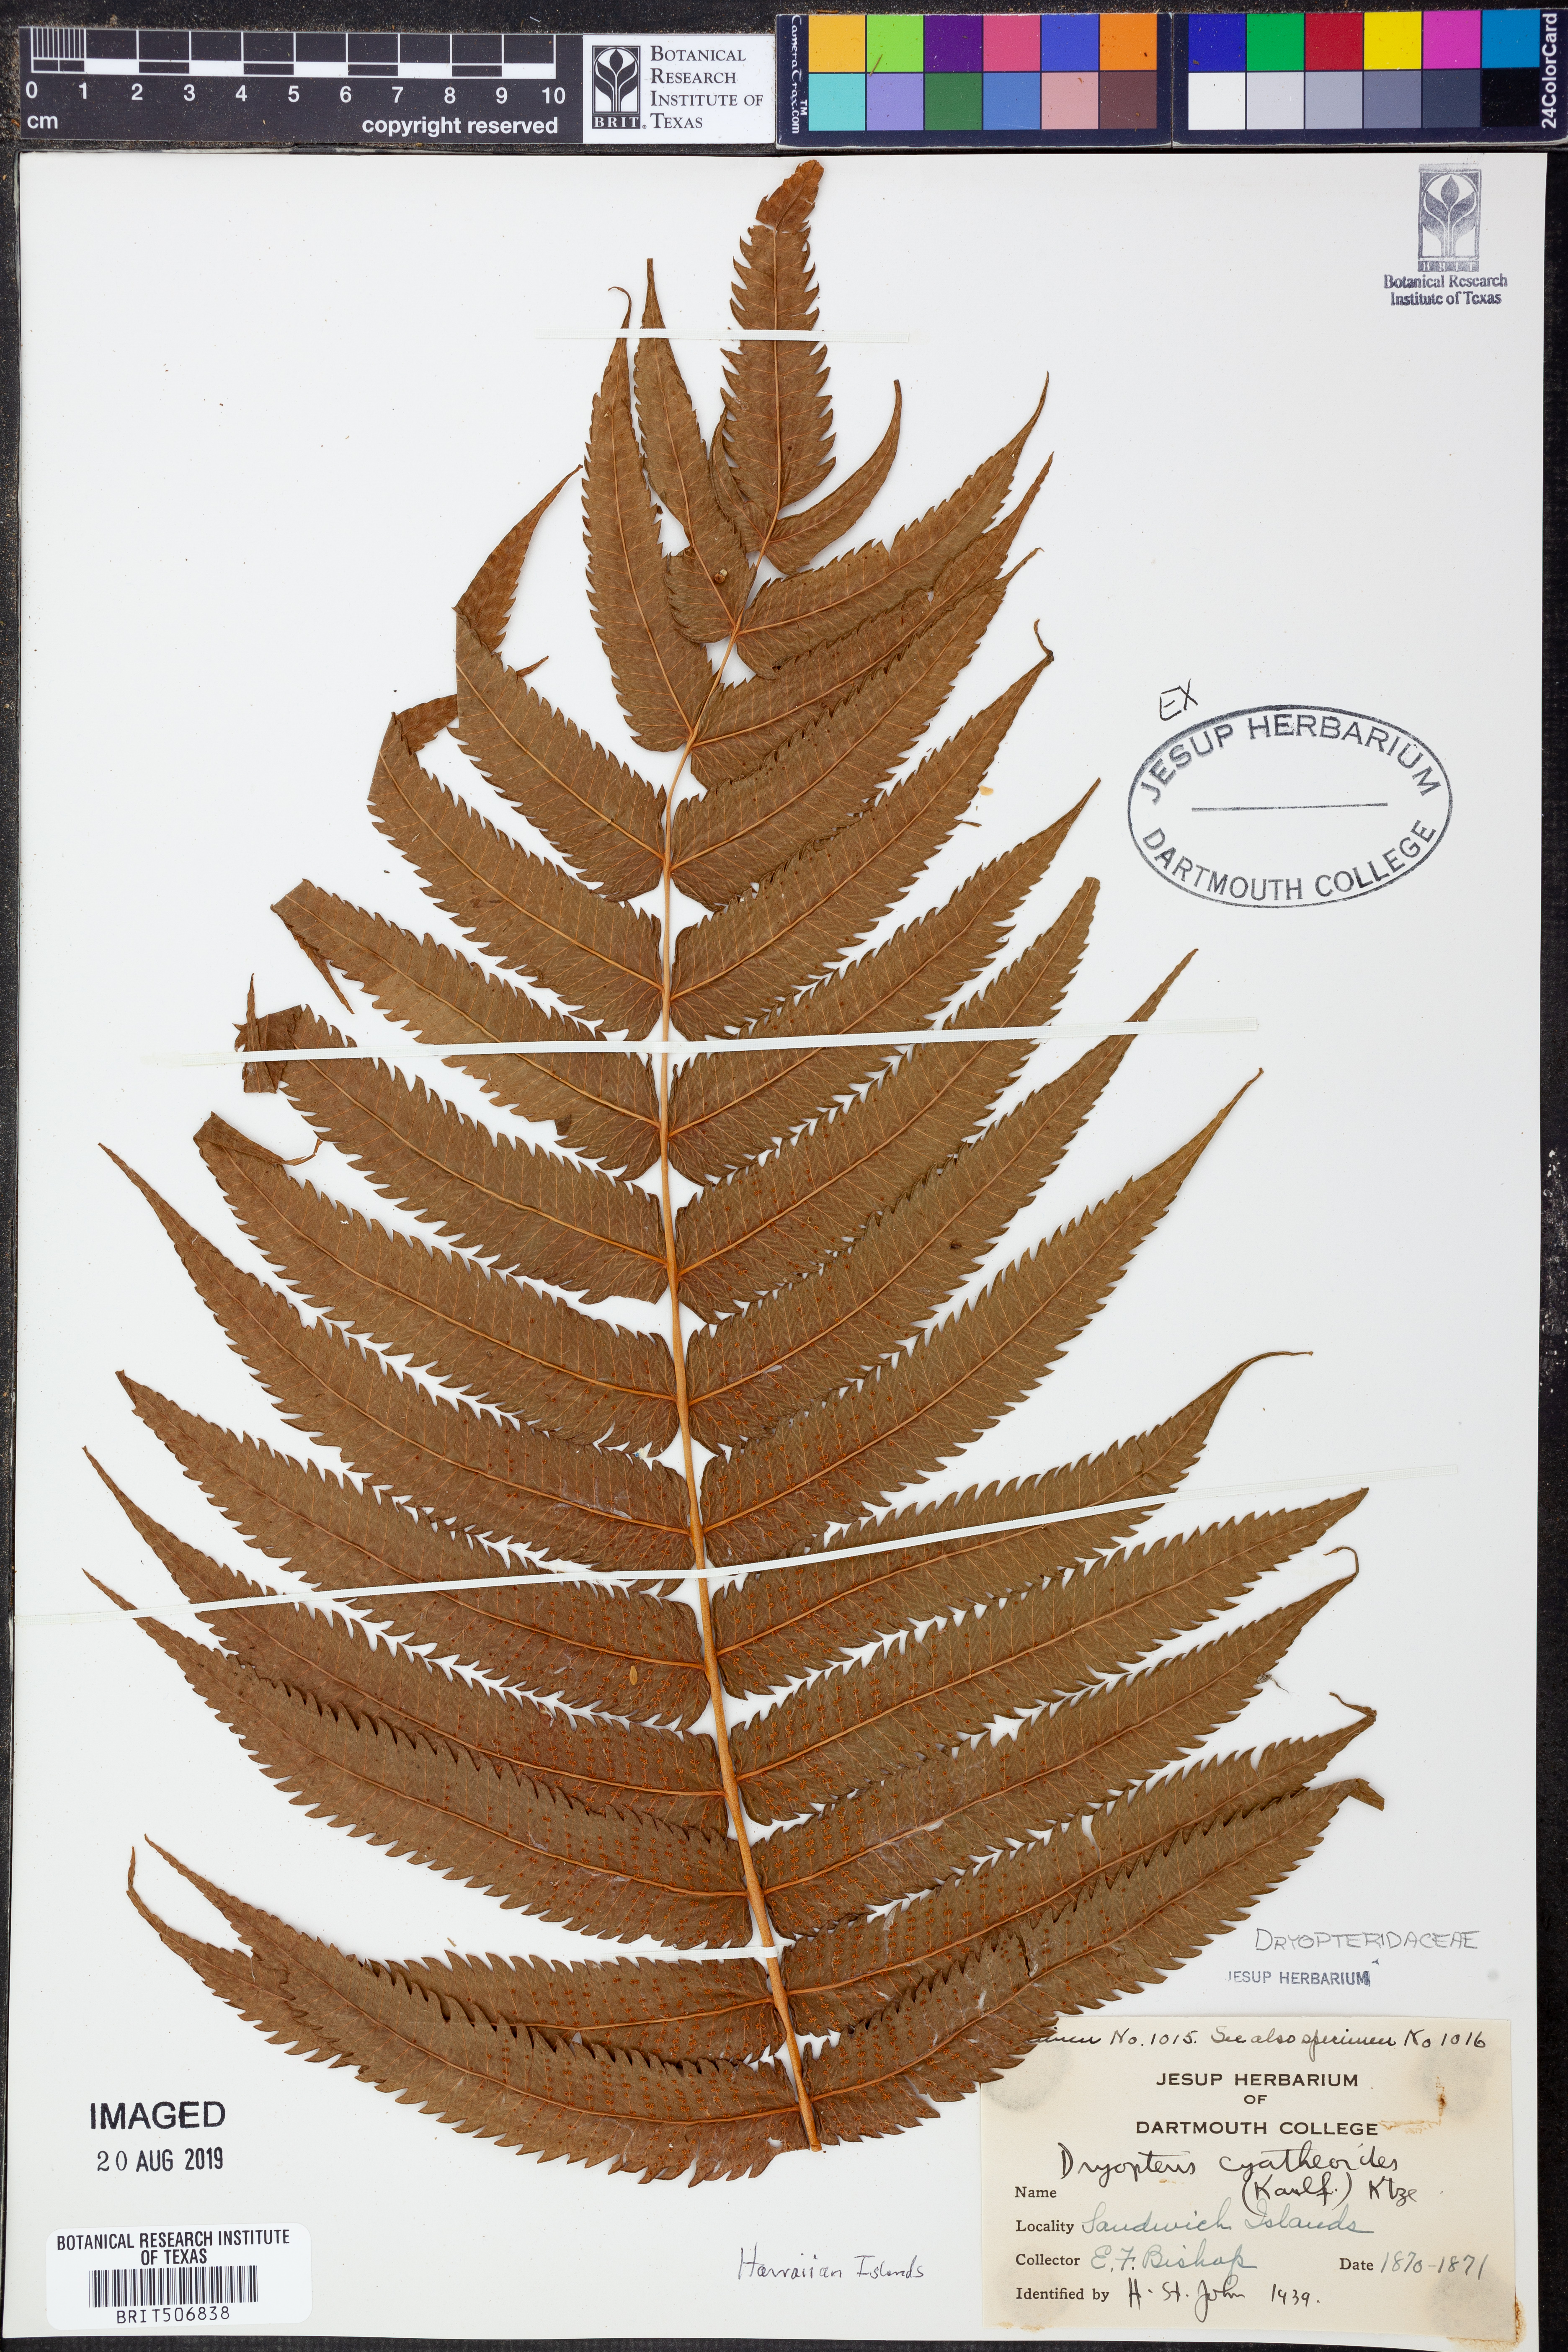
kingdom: Plantae
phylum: Tracheophyta
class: Polypodiopsida
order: Polypodiales
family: Thelypteridaceae
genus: Menisciopsis
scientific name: Menisciopsis cyatheoides
